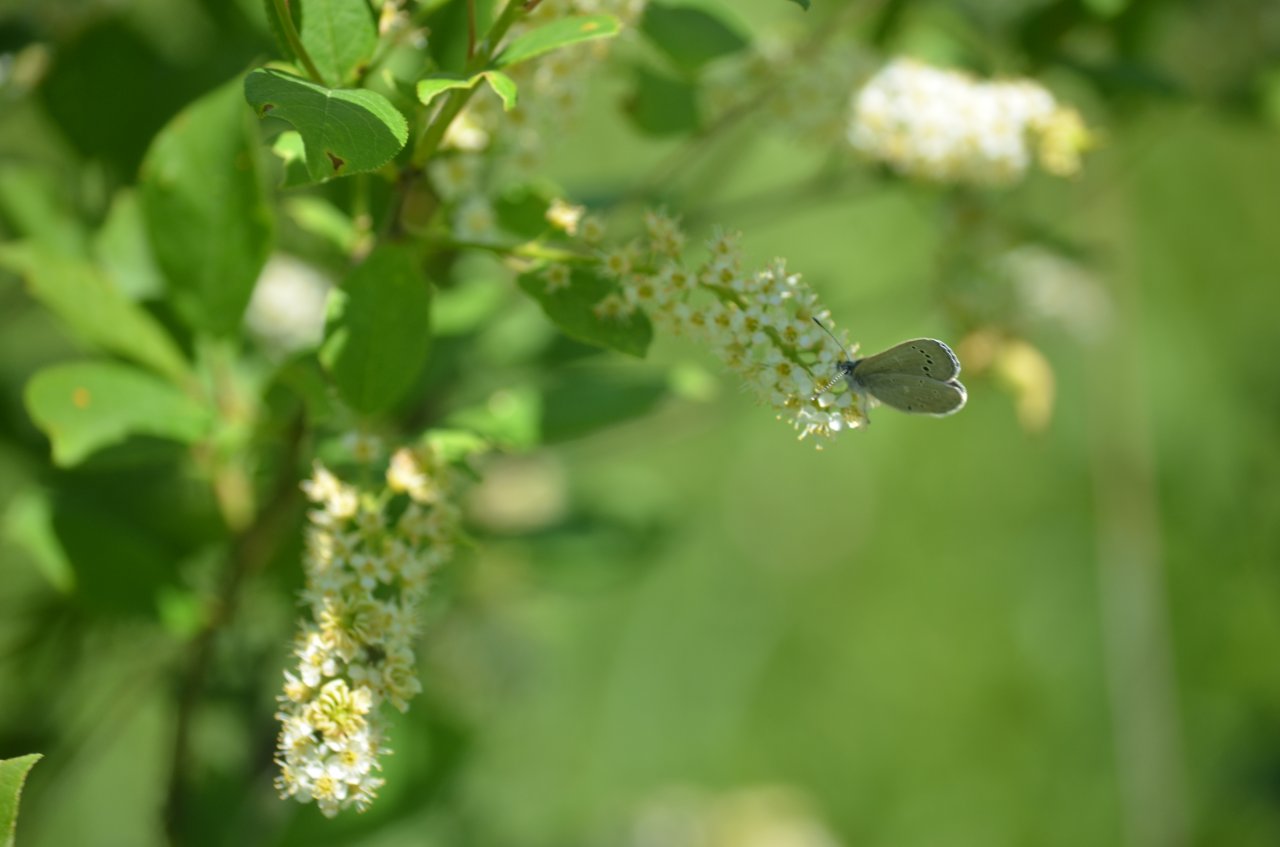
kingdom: Animalia
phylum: Arthropoda
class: Insecta
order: Lepidoptera
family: Lycaenidae
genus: Glaucopsyche
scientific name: Glaucopsyche lygdamus
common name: Silvery Blue
